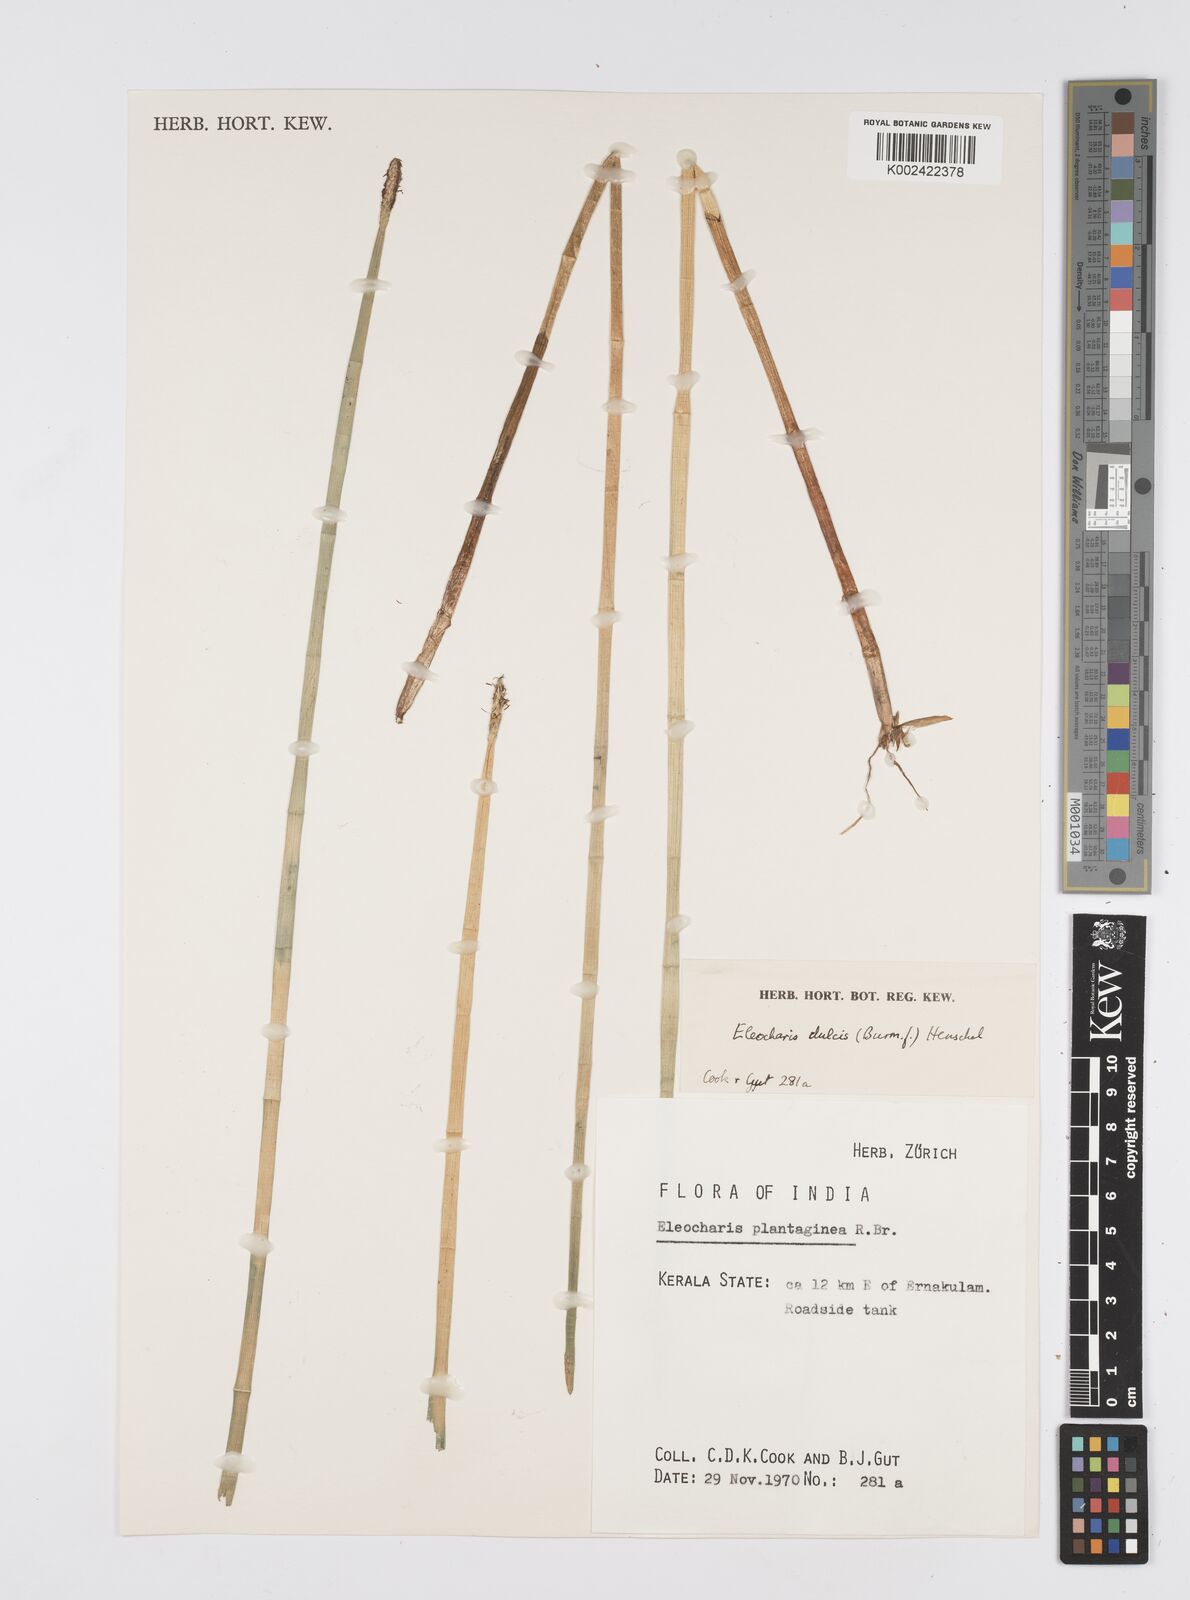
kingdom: Plantae
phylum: Tracheophyta
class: Liliopsida
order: Poales
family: Cyperaceae
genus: Eleocharis
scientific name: Eleocharis dulcis
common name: Chinese water chestnut
